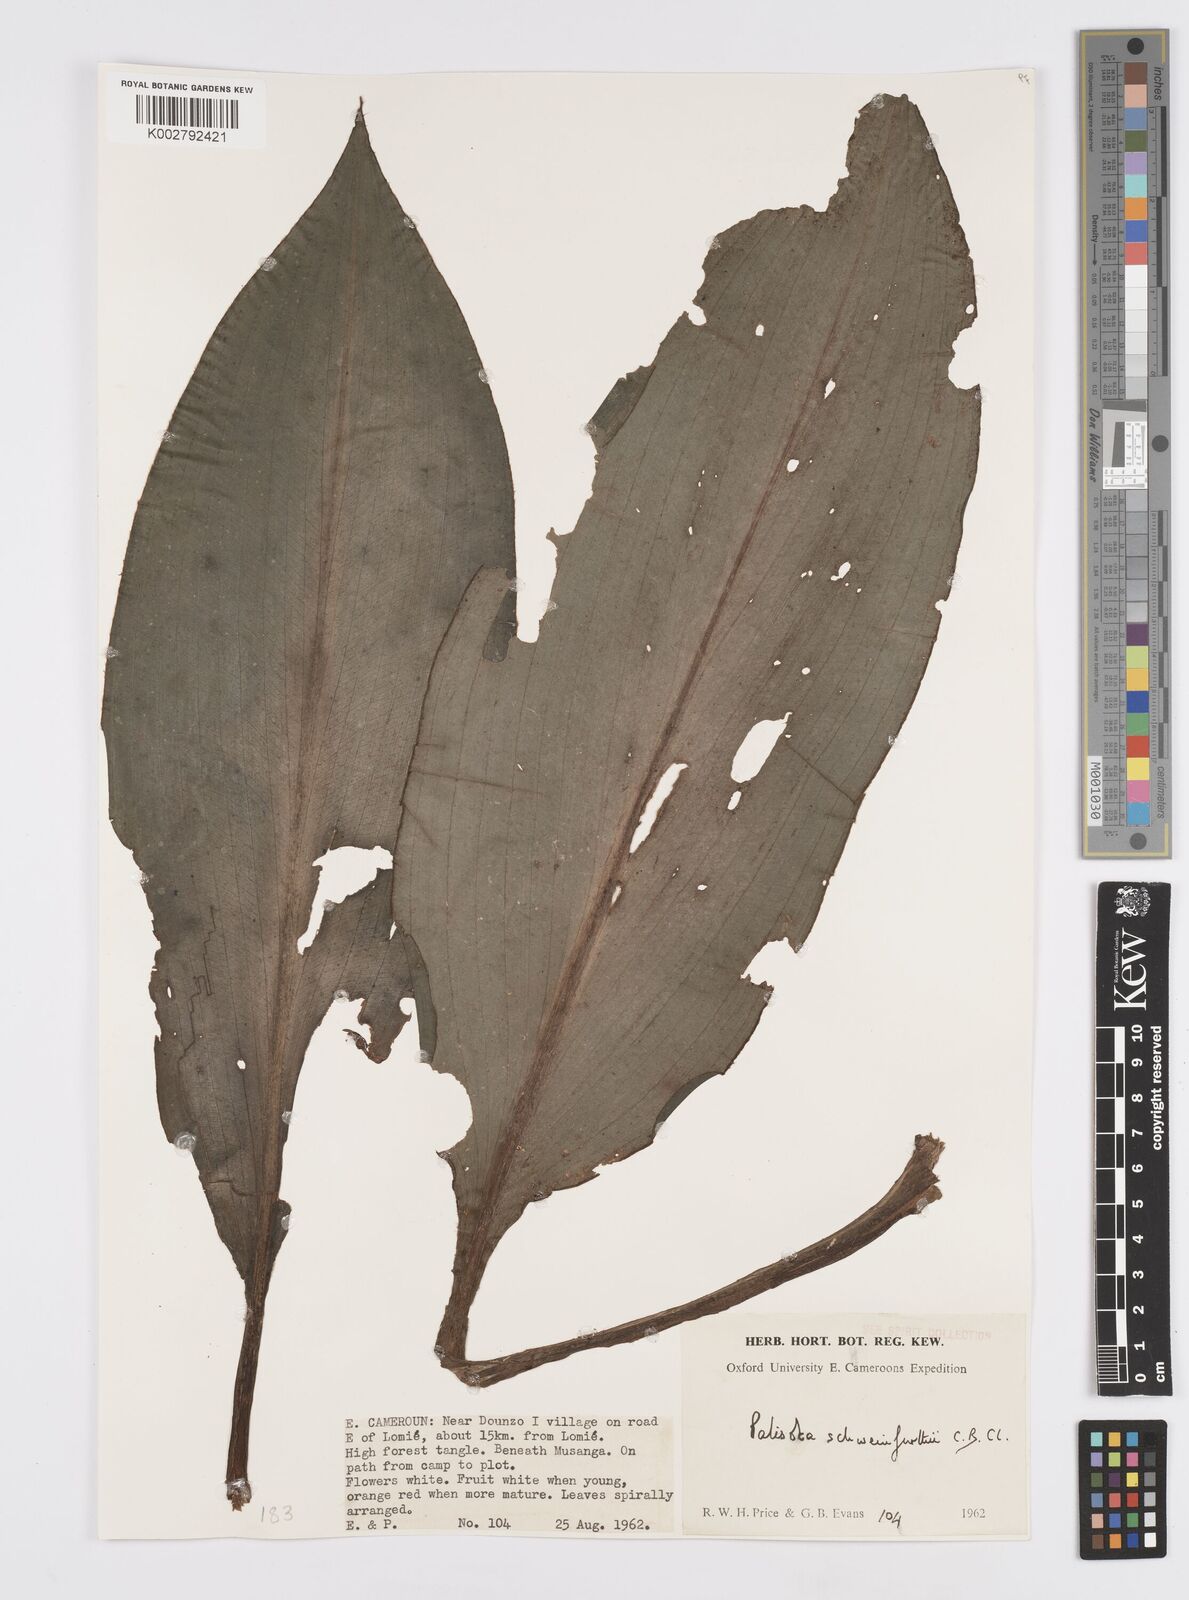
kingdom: Plantae
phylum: Tracheophyta
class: Liliopsida
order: Commelinales
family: Commelinaceae
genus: Palisota
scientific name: Palisota schweinfurthii
